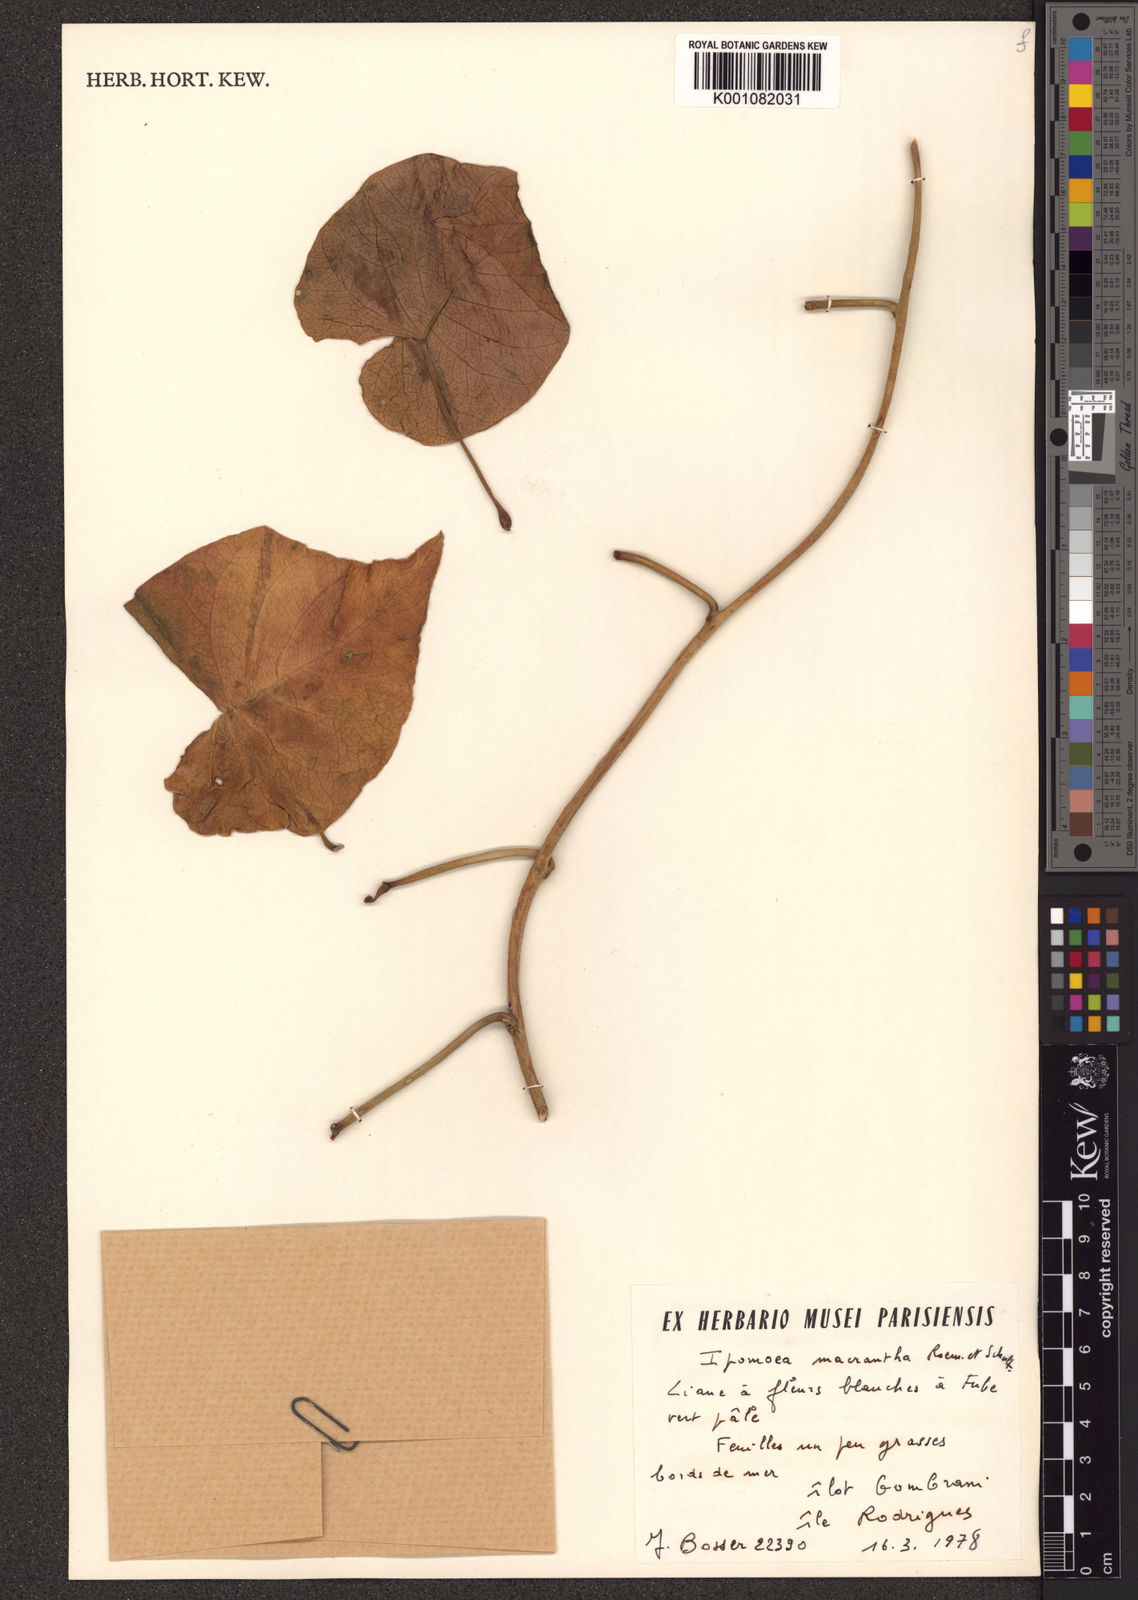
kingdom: Plantae
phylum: Tracheophyta
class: Magnoliopsida
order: Solanales
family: Convolvulaceae
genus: Ipomoea
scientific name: Ipomoea violacea
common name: Beach moonflower
